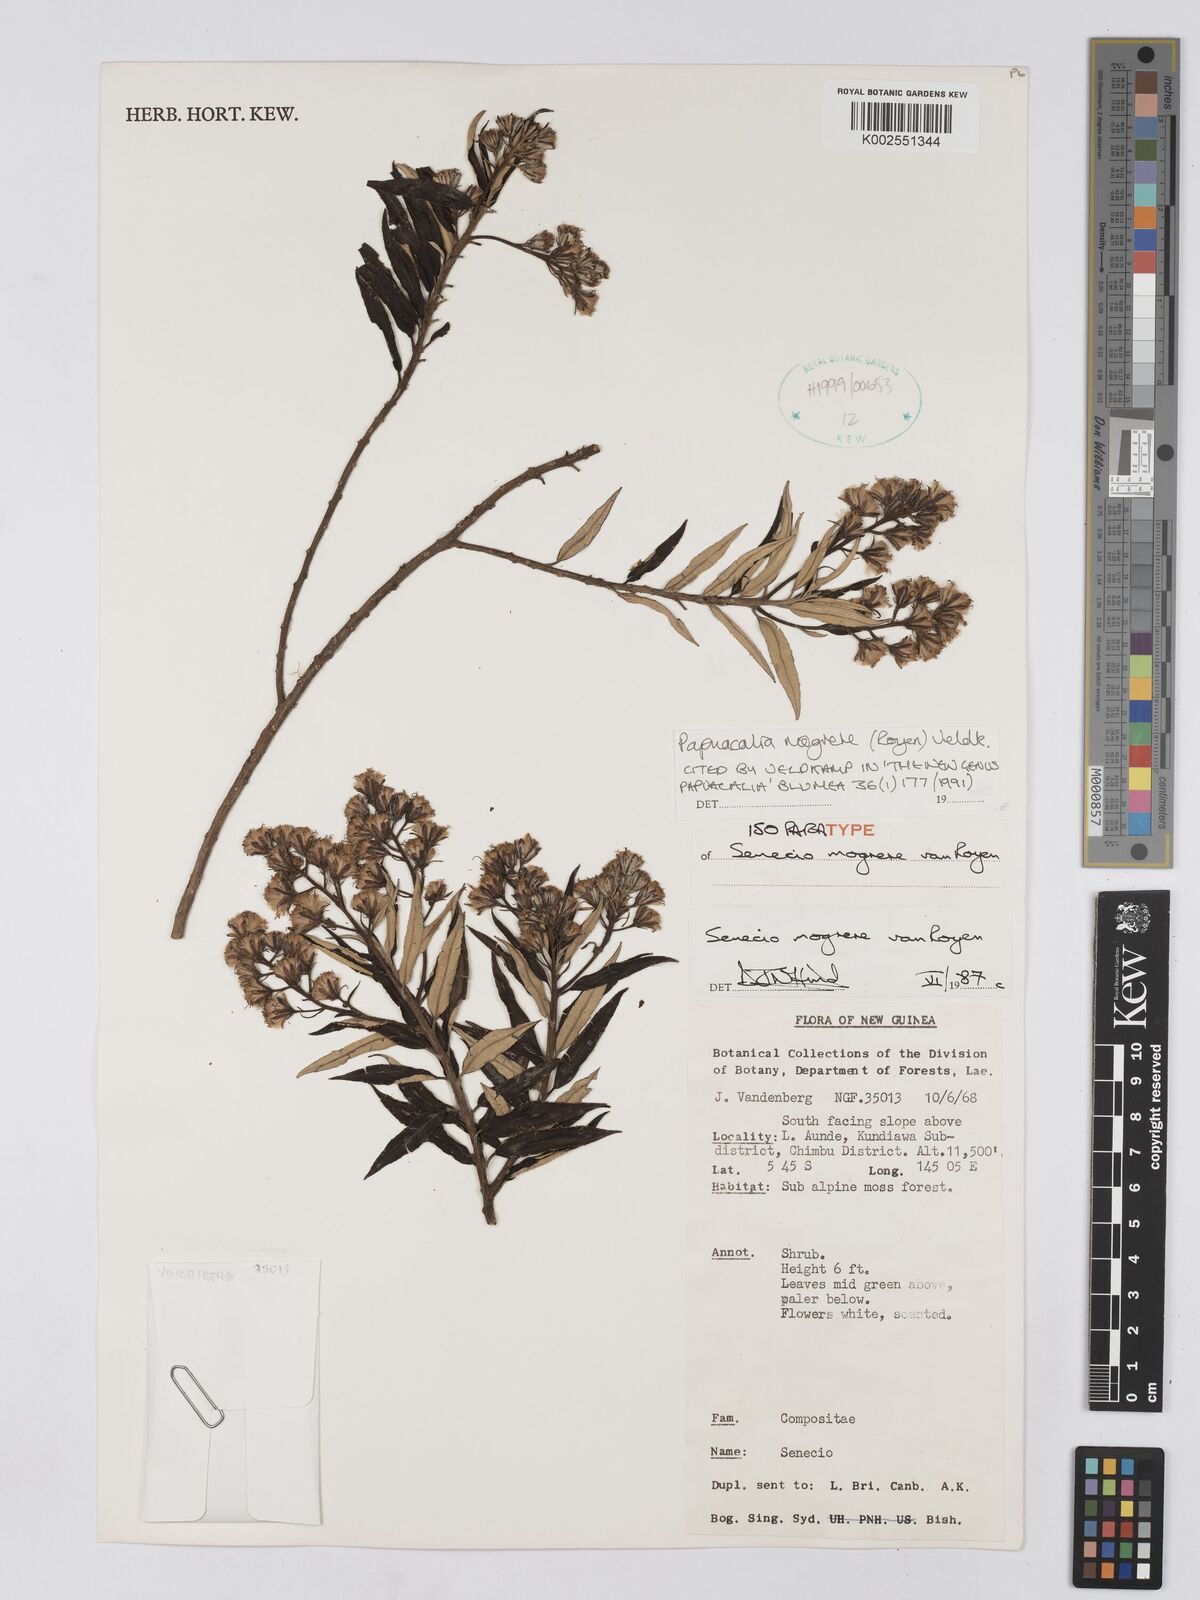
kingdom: Plantae
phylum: Tracheophyta
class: Magnoliopsida
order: Asterales
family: Asteraceae
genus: Papuacalia
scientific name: Papuacalia mogrere
